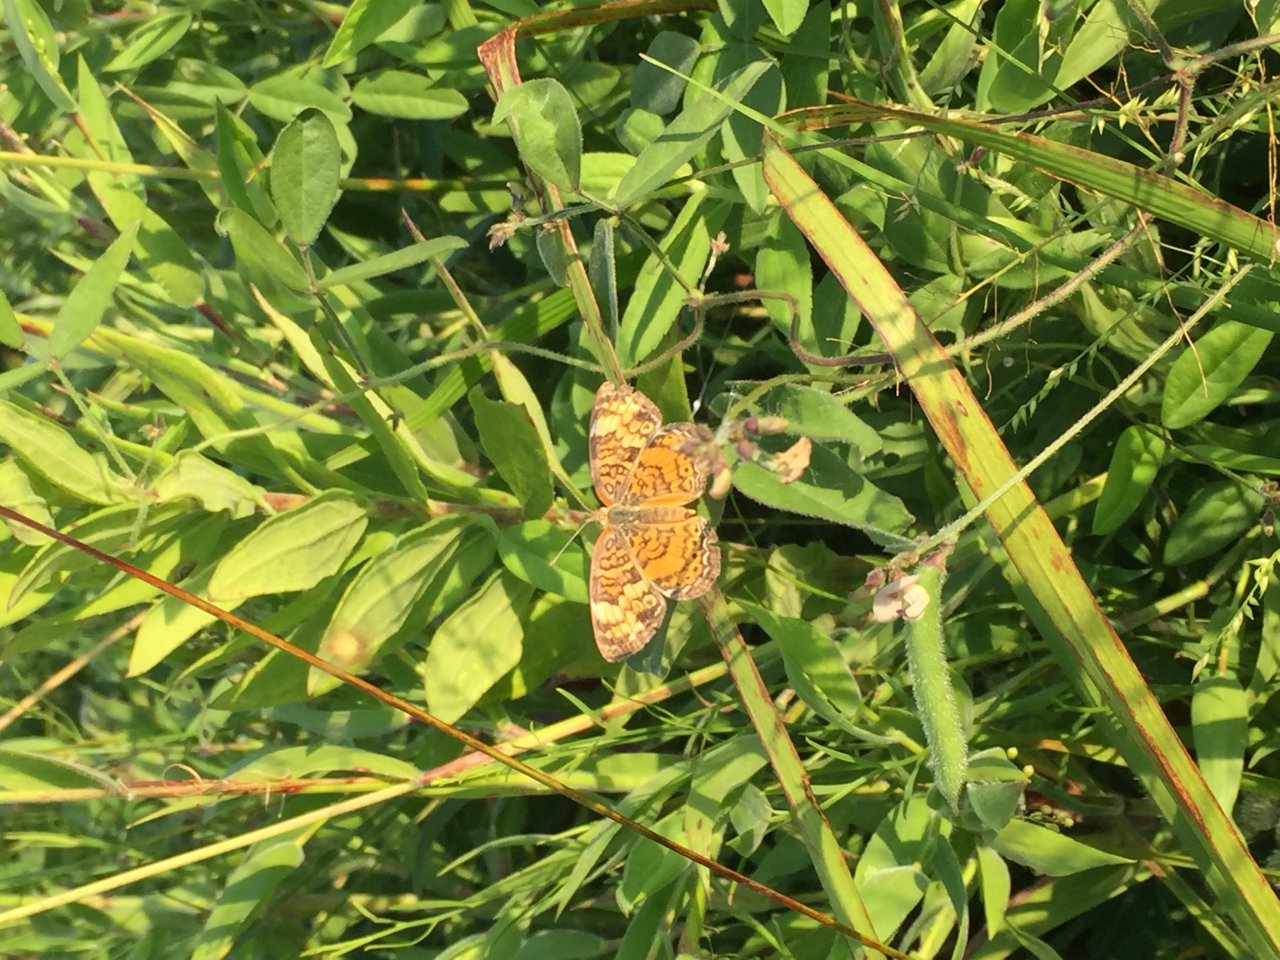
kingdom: Animalia
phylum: Arthropoda
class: Insecta
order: Lepidoptera
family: Nymphalidae
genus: Phyciodes
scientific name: Phyciodes tharos
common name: Pearl Crescent
